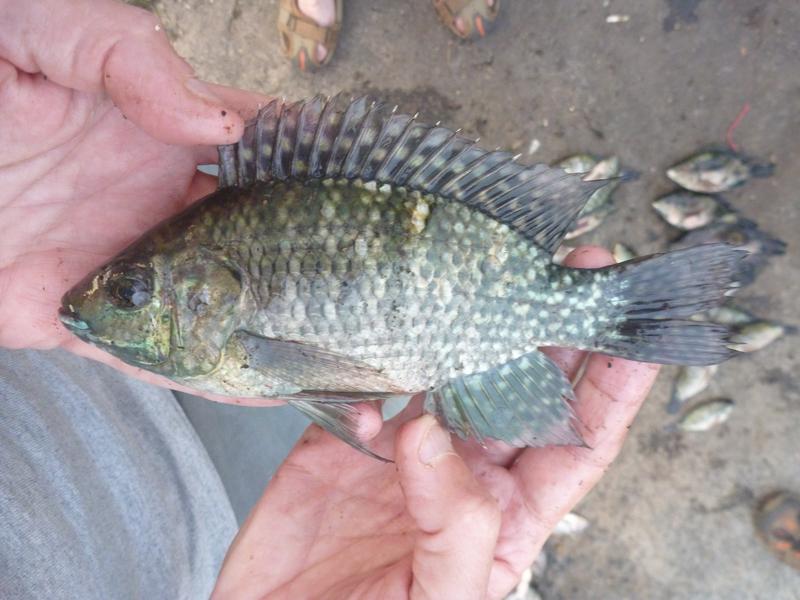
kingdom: Animalia
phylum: Chordata
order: Perciformes
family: Cichlidae
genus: Oreochromis
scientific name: Oreochromis leucostictus
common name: Blue spotted tilapia
